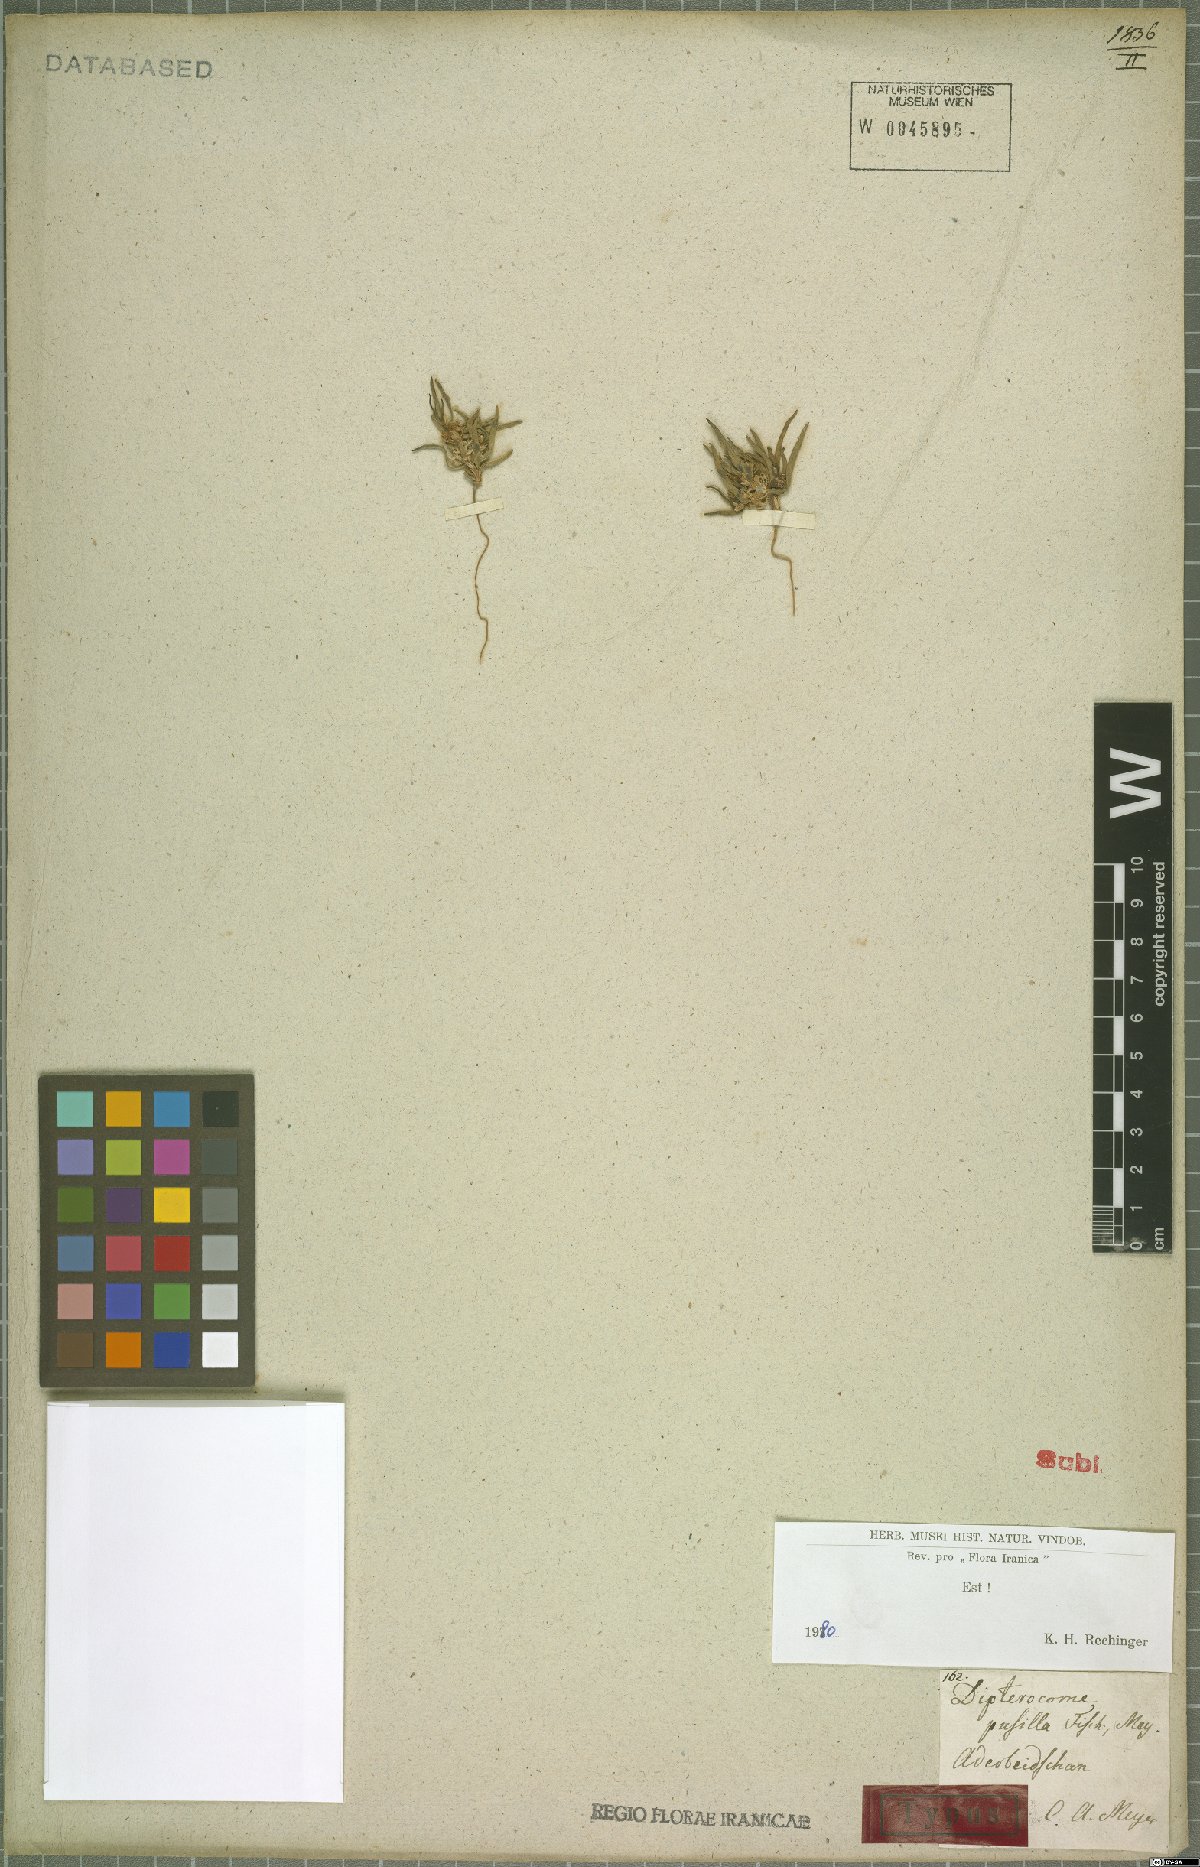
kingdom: Plantae
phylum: Tracheophyta
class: Magnoliopsida
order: Asterales
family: Asteraceae
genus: Dipterocome
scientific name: Dipterocome pusilla
